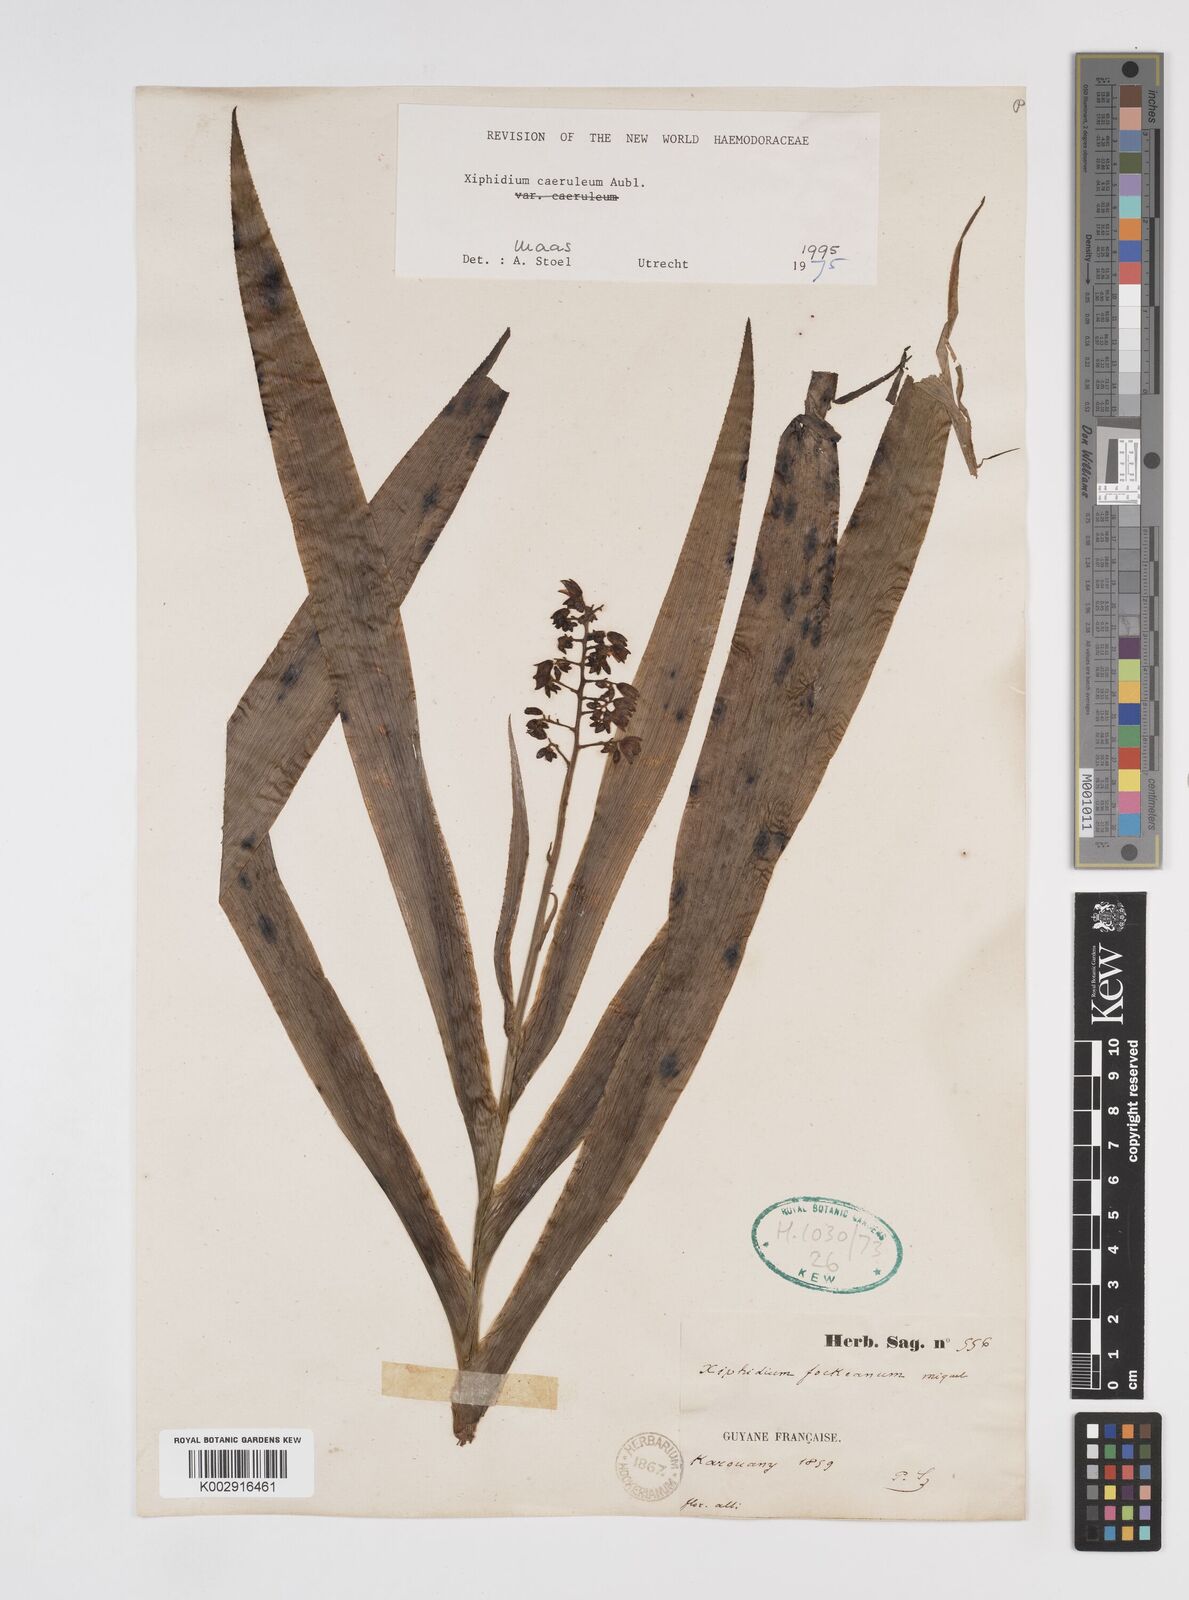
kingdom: Plantae
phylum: Tracheophyta
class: Liliopsida
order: Commelinales
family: Haemodoraceae
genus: Xiphidium
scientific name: Xiphidium caeruleum
